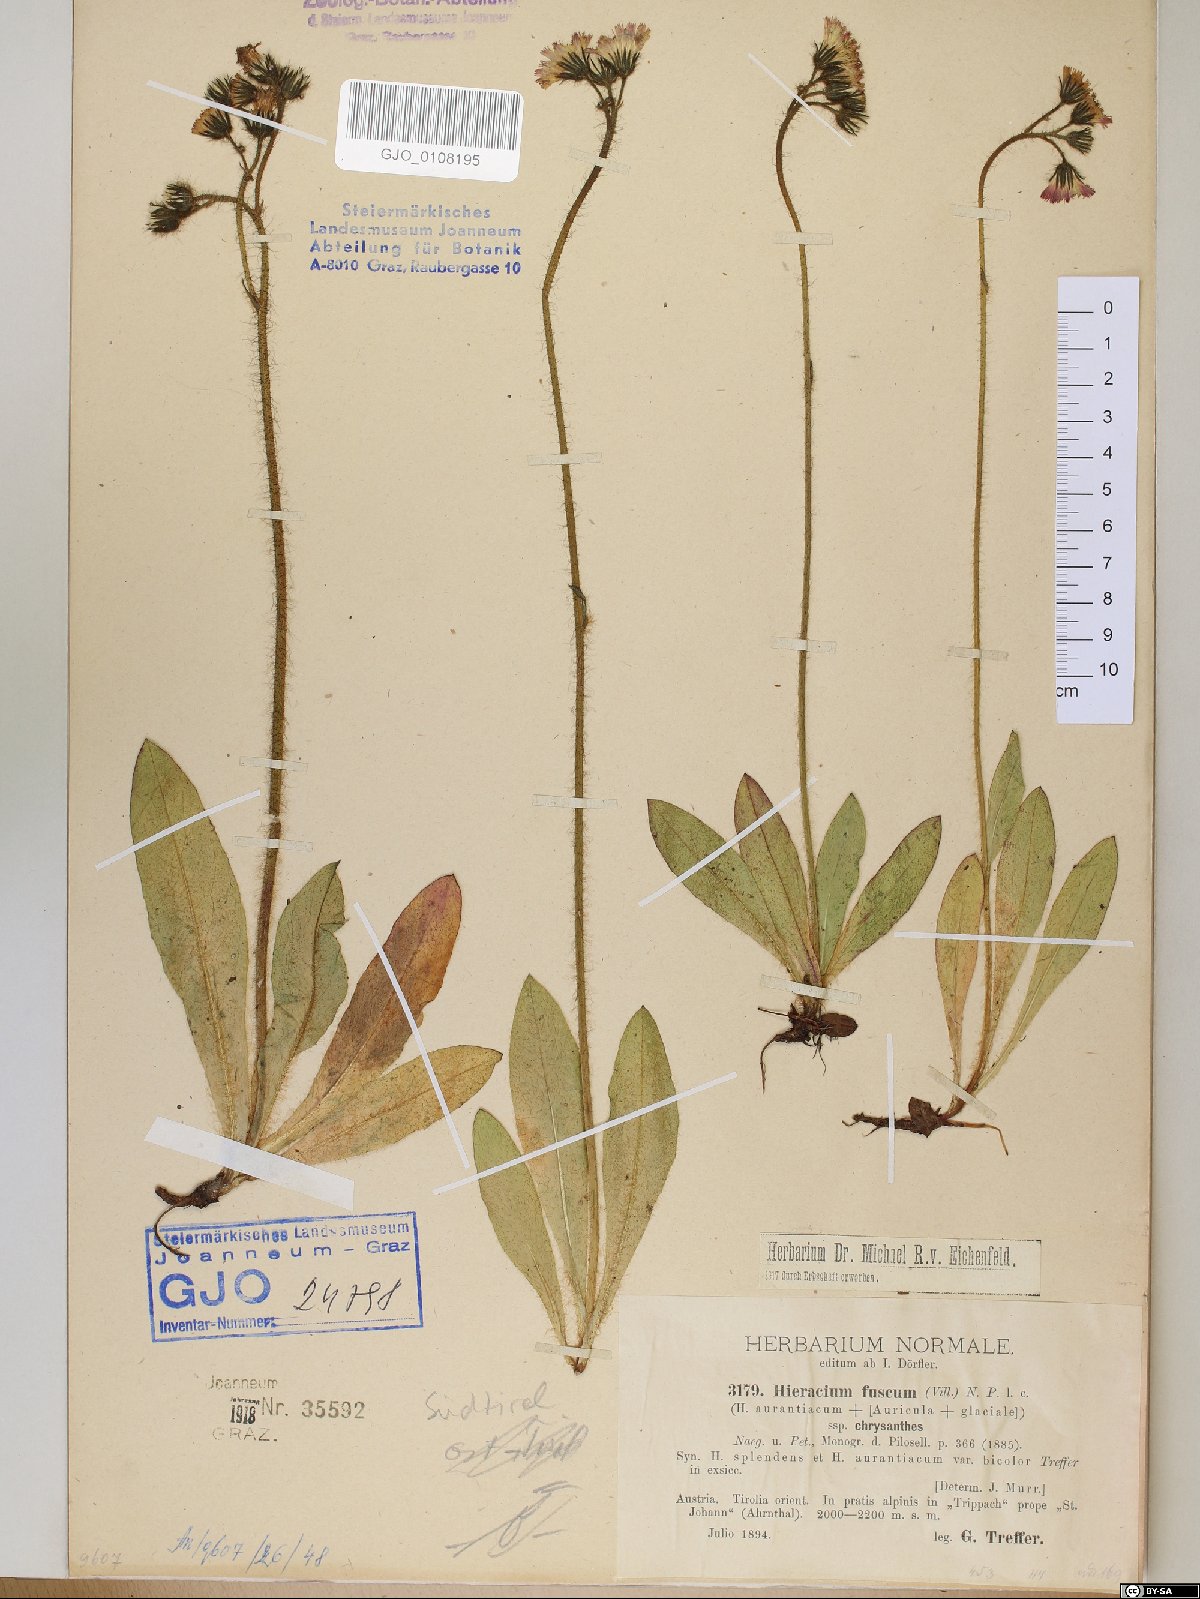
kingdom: Plantae
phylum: Tracheophyta
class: Magnoliopsida
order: Asterales
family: Asteraceae
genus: Pilosella
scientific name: Pilosella fusca
